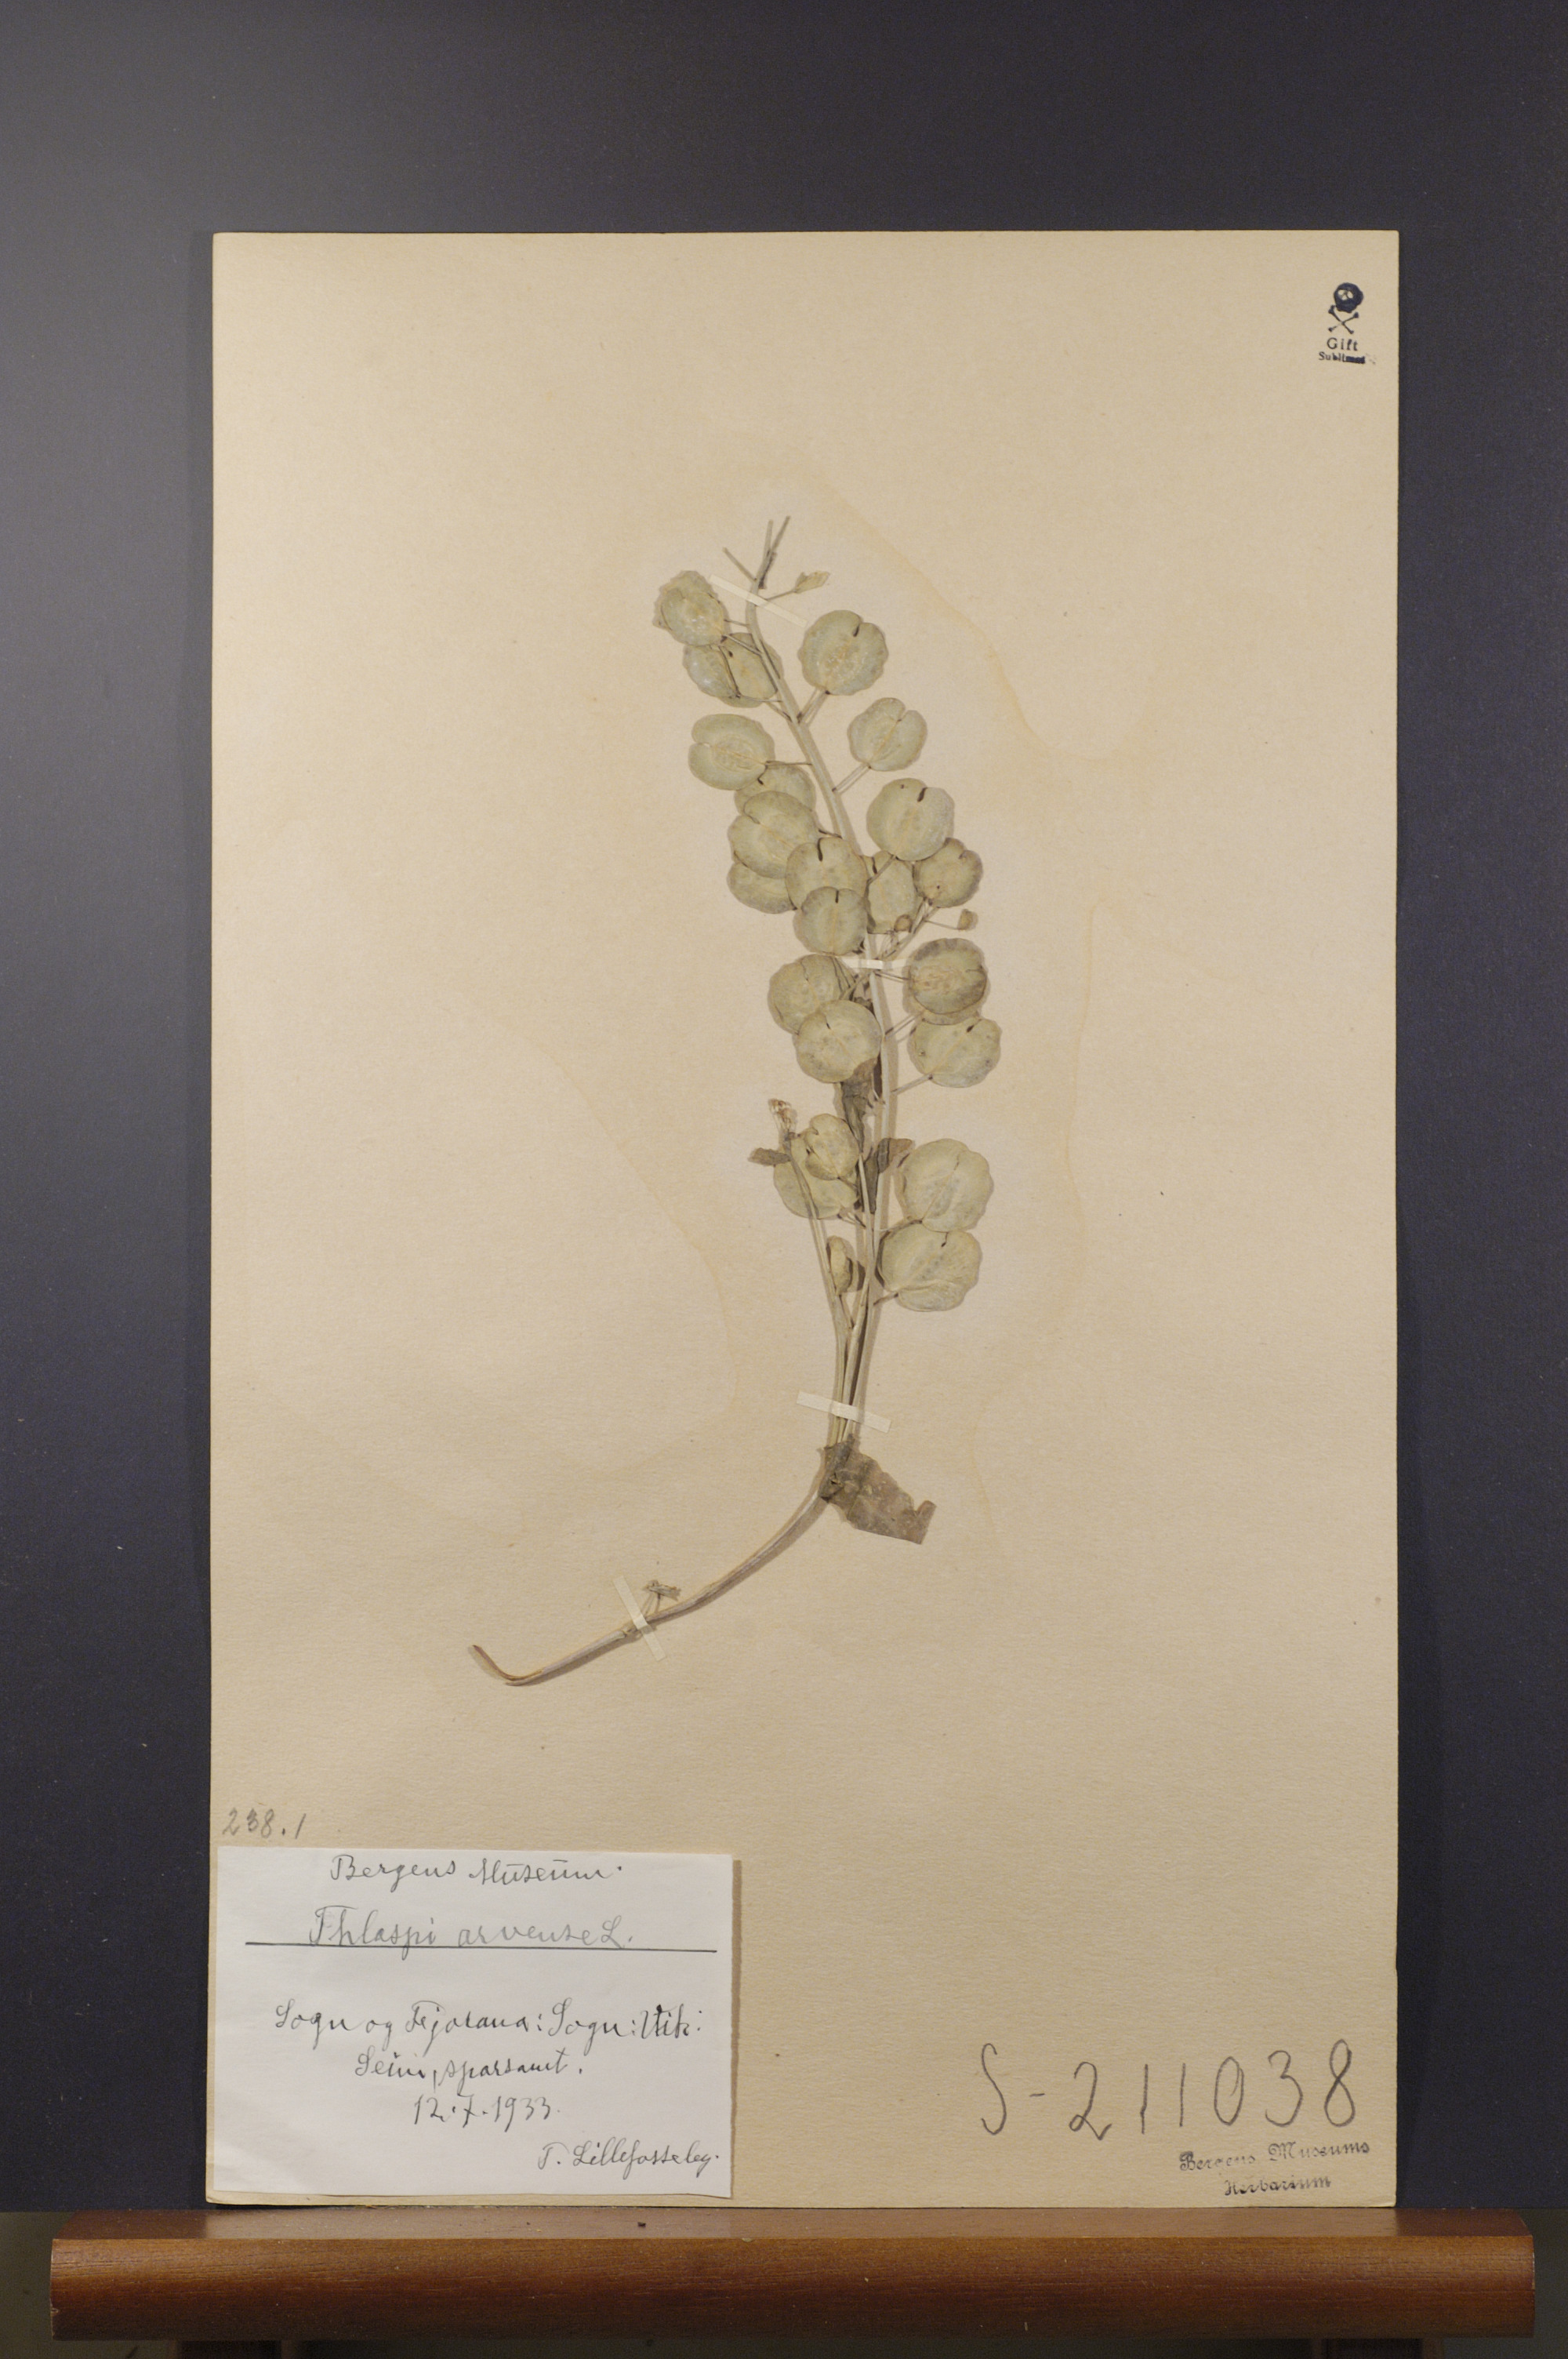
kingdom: Plantae
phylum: Tracheophyta
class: Magnoliopsida
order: Brassicales
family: Brassicaceae
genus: Thlaspi
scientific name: Thlaspi arvense
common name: Field pennycress
